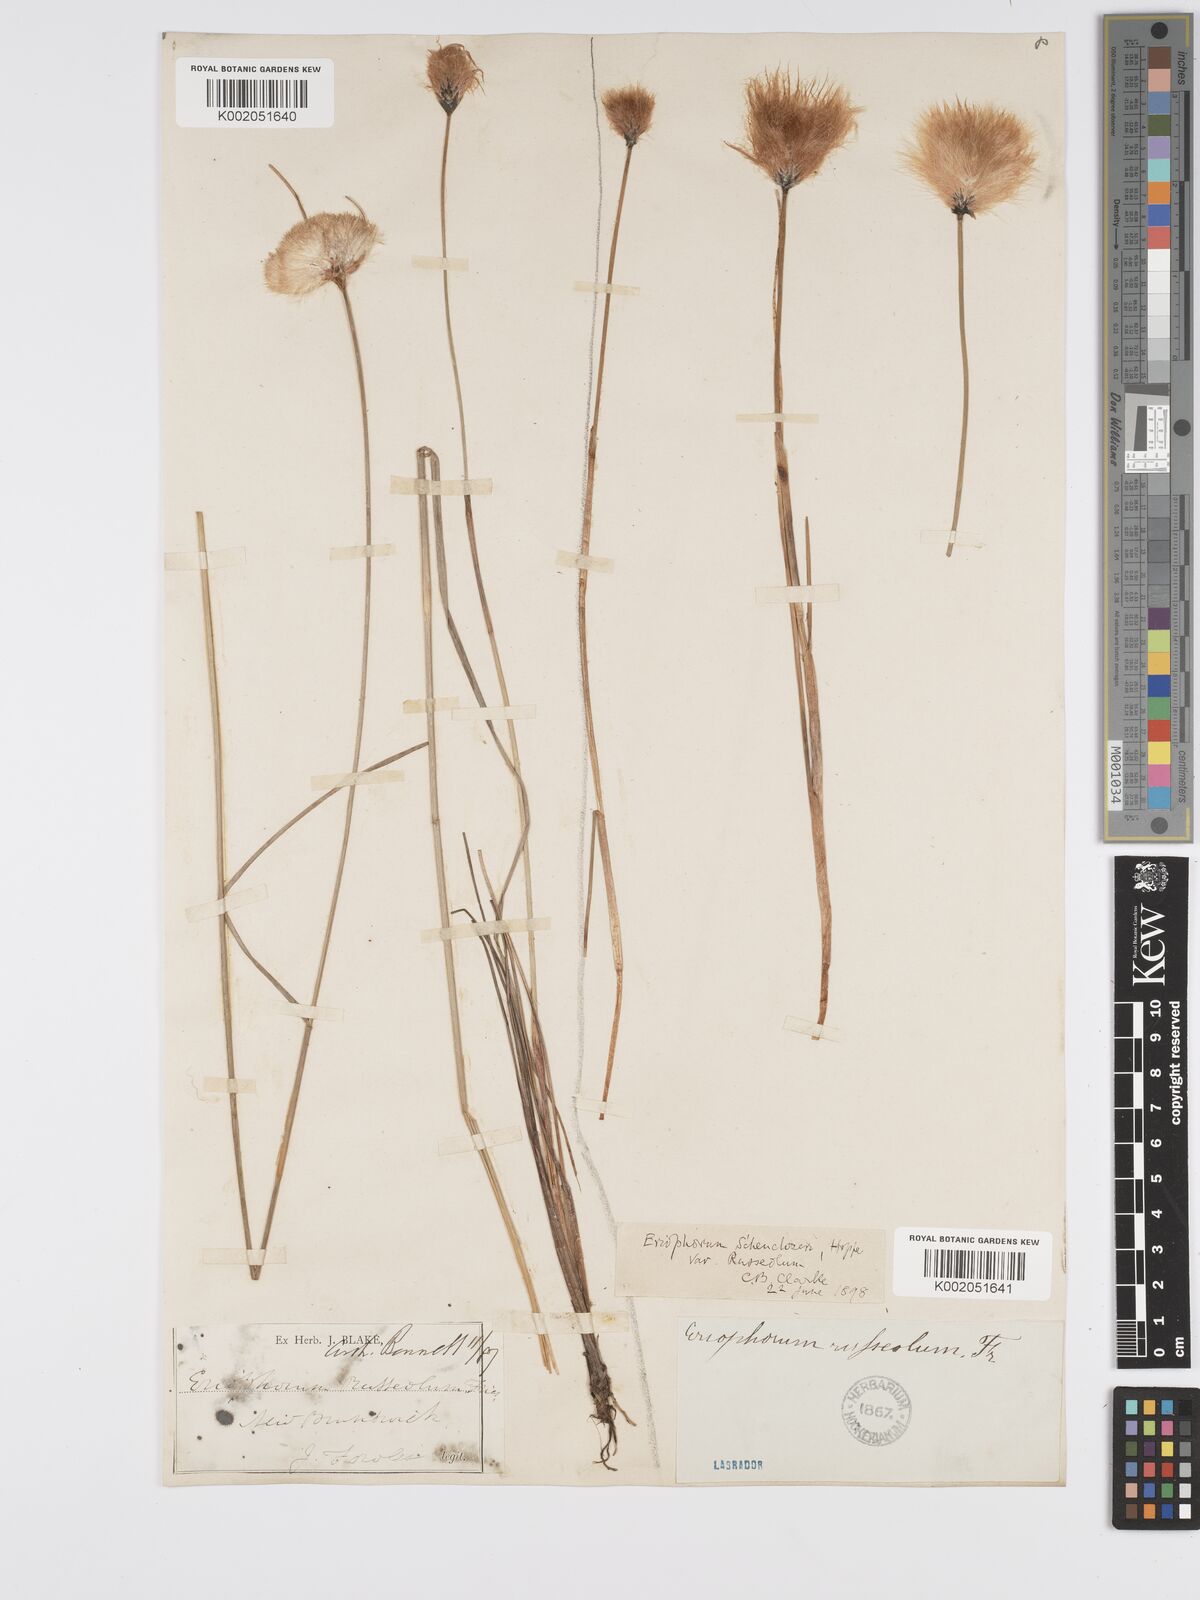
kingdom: Plantae
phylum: Tracheophyta
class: Liliopsida
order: Poales
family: Cyperaceae
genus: Eriophorum
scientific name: Eriophorum chamissonis
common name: Chamisso's cottongrass
